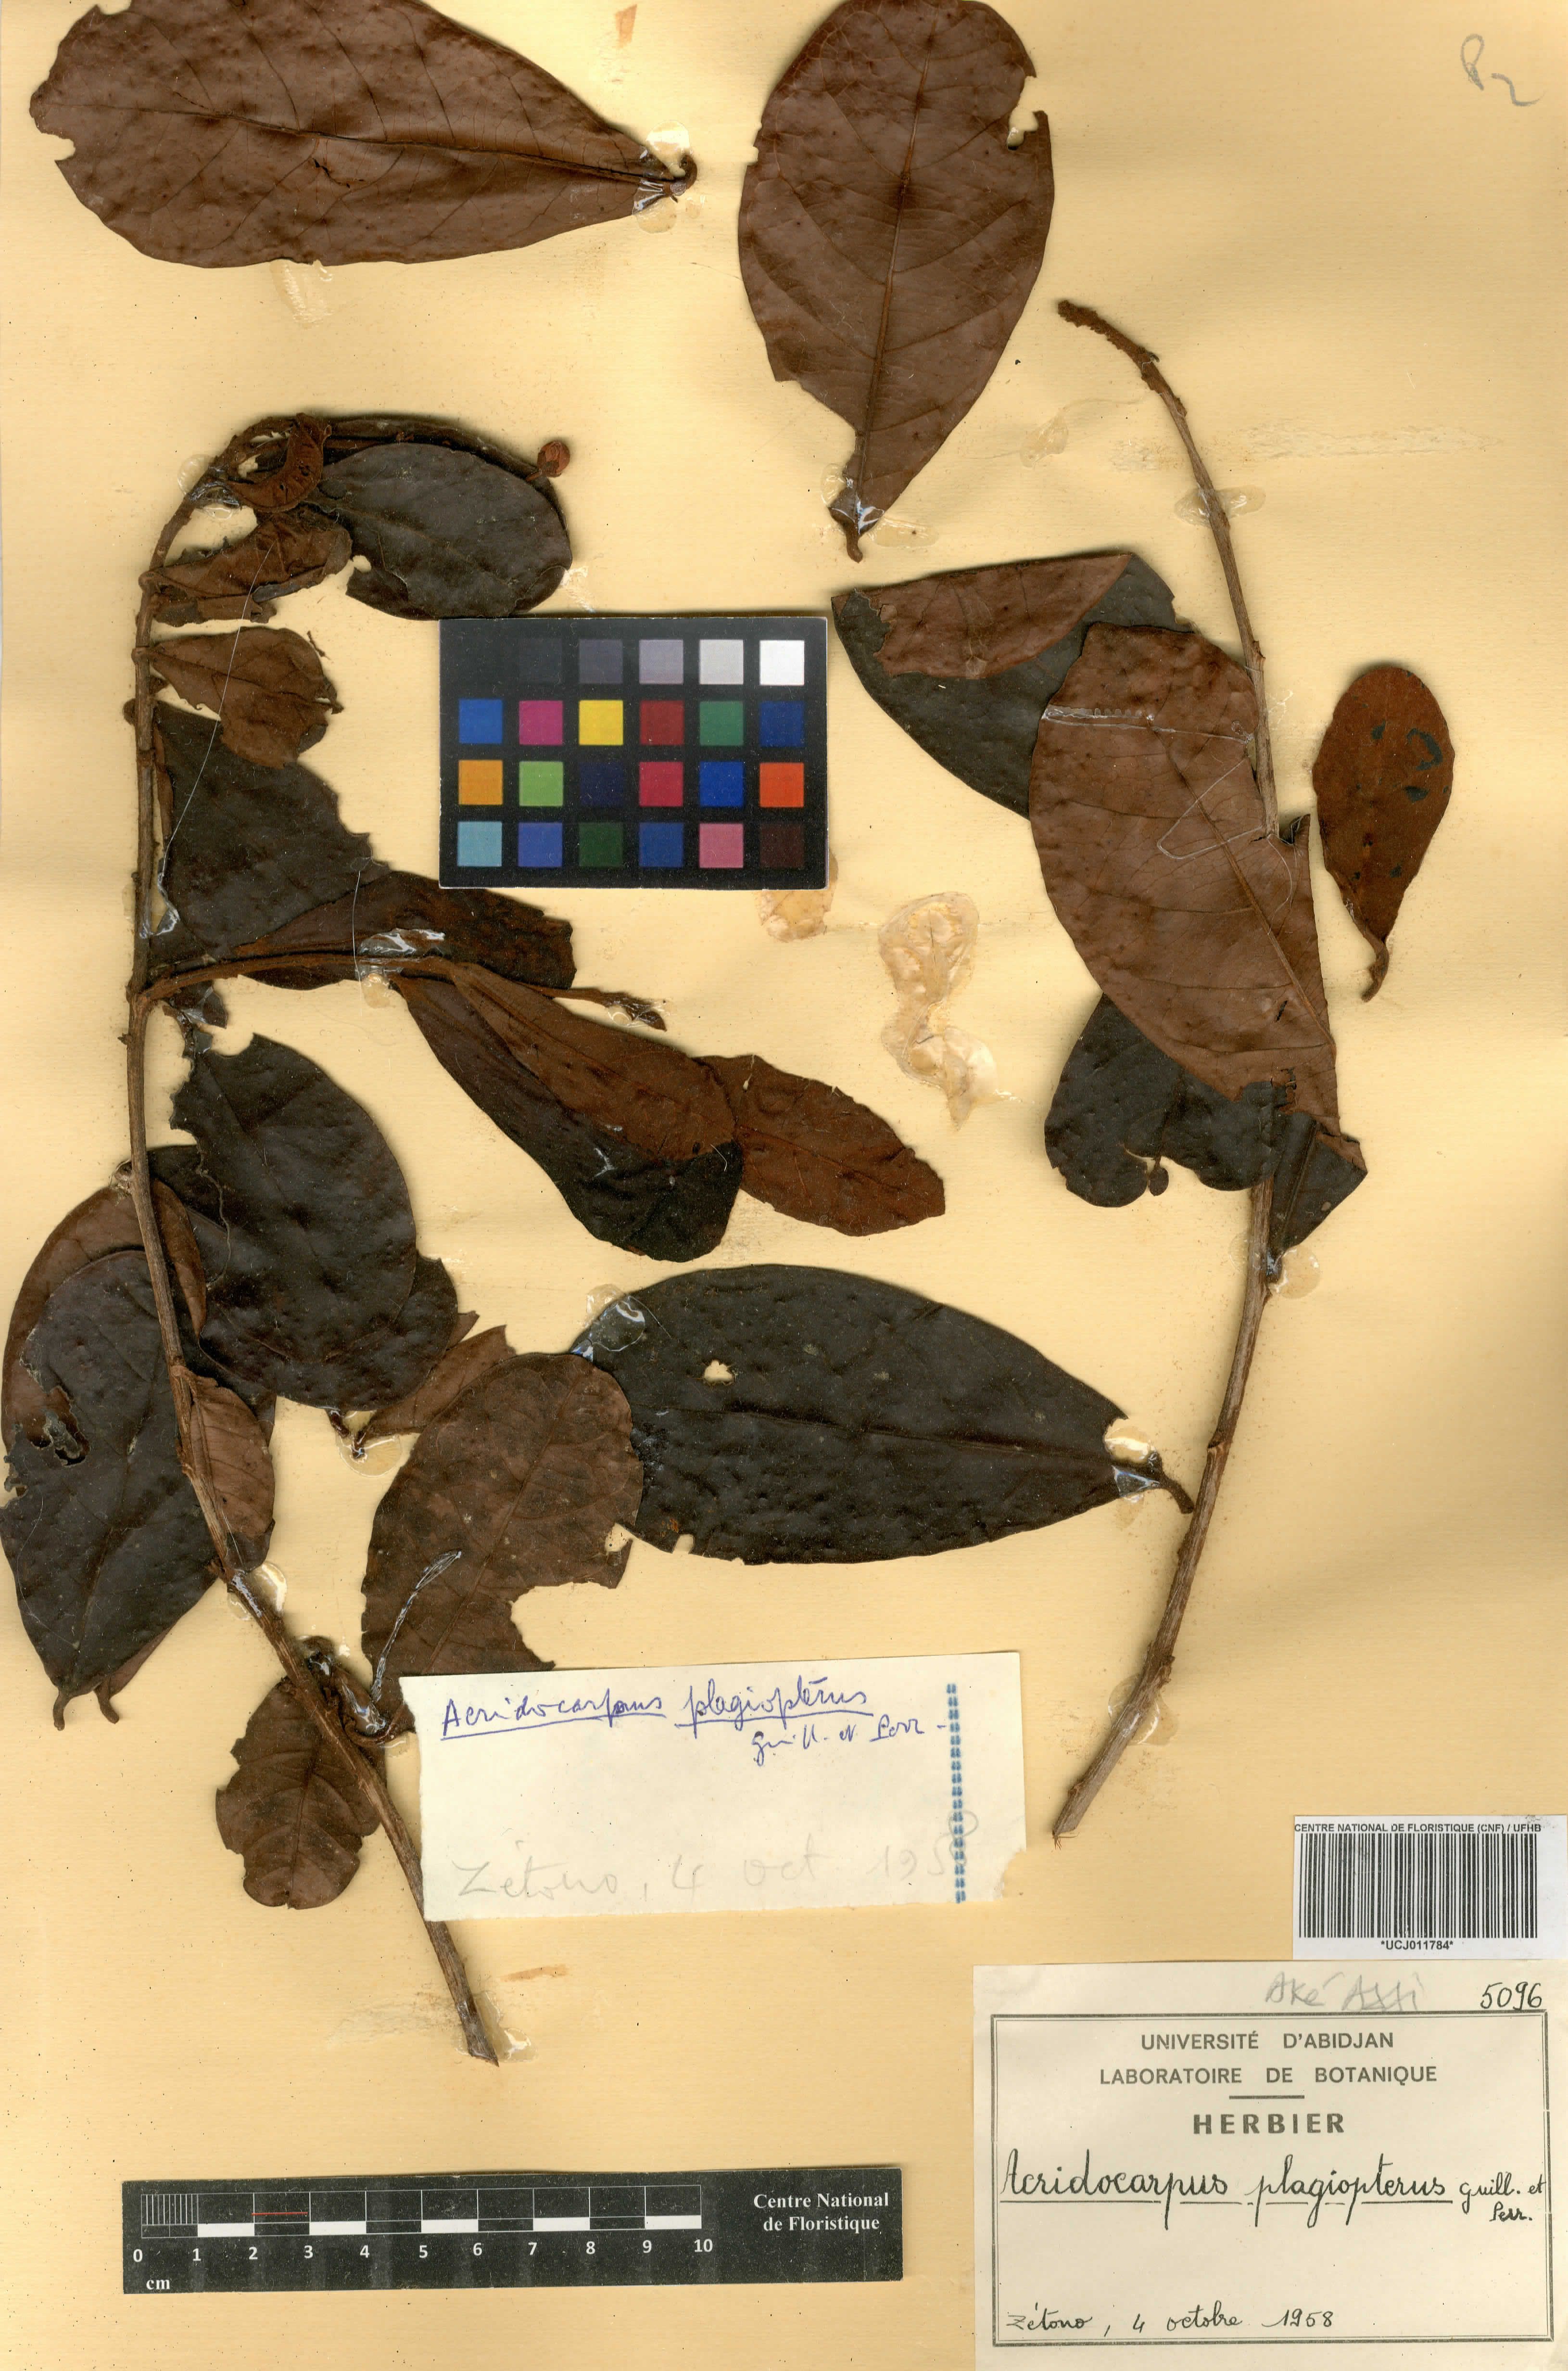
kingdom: Plantae
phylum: Tracheophyta
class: Magnoliopsida
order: Malpighiales
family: Malpighiaceae
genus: Acridocarpus
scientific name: Acridocarpus plagiopterus
